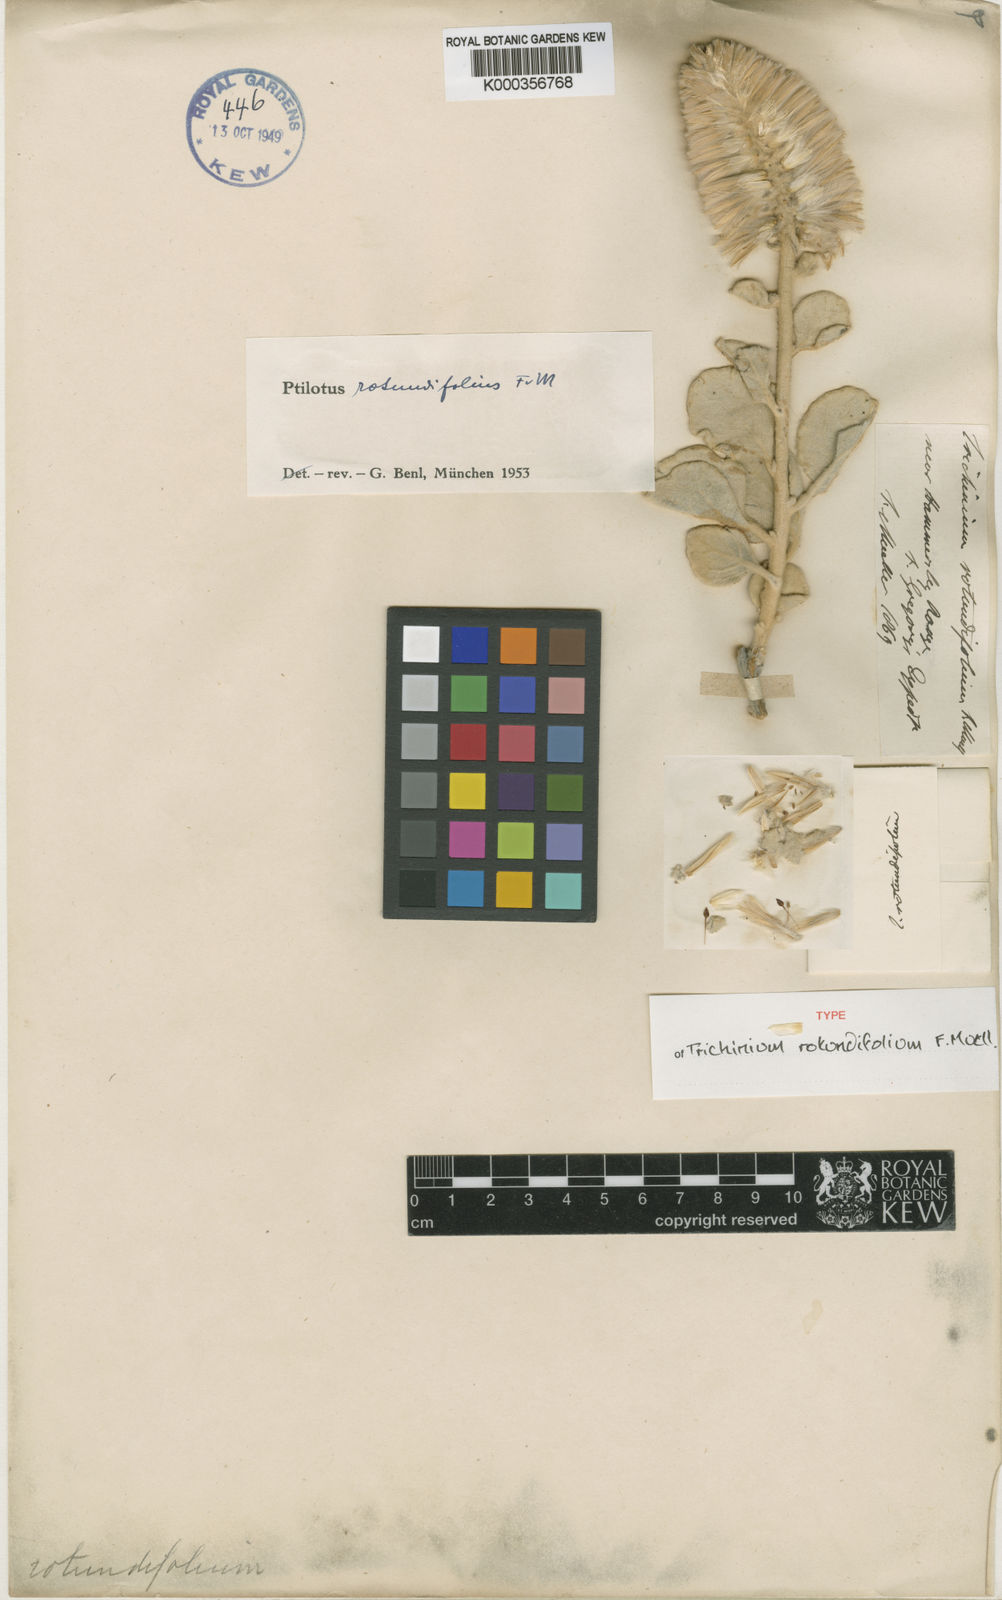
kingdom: Plantae
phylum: Tracheophyta
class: Magnoliopsida
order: Caryophyllales
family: Amaranthaceae
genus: Ptilotus
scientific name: Ptilotus rotundifolius
